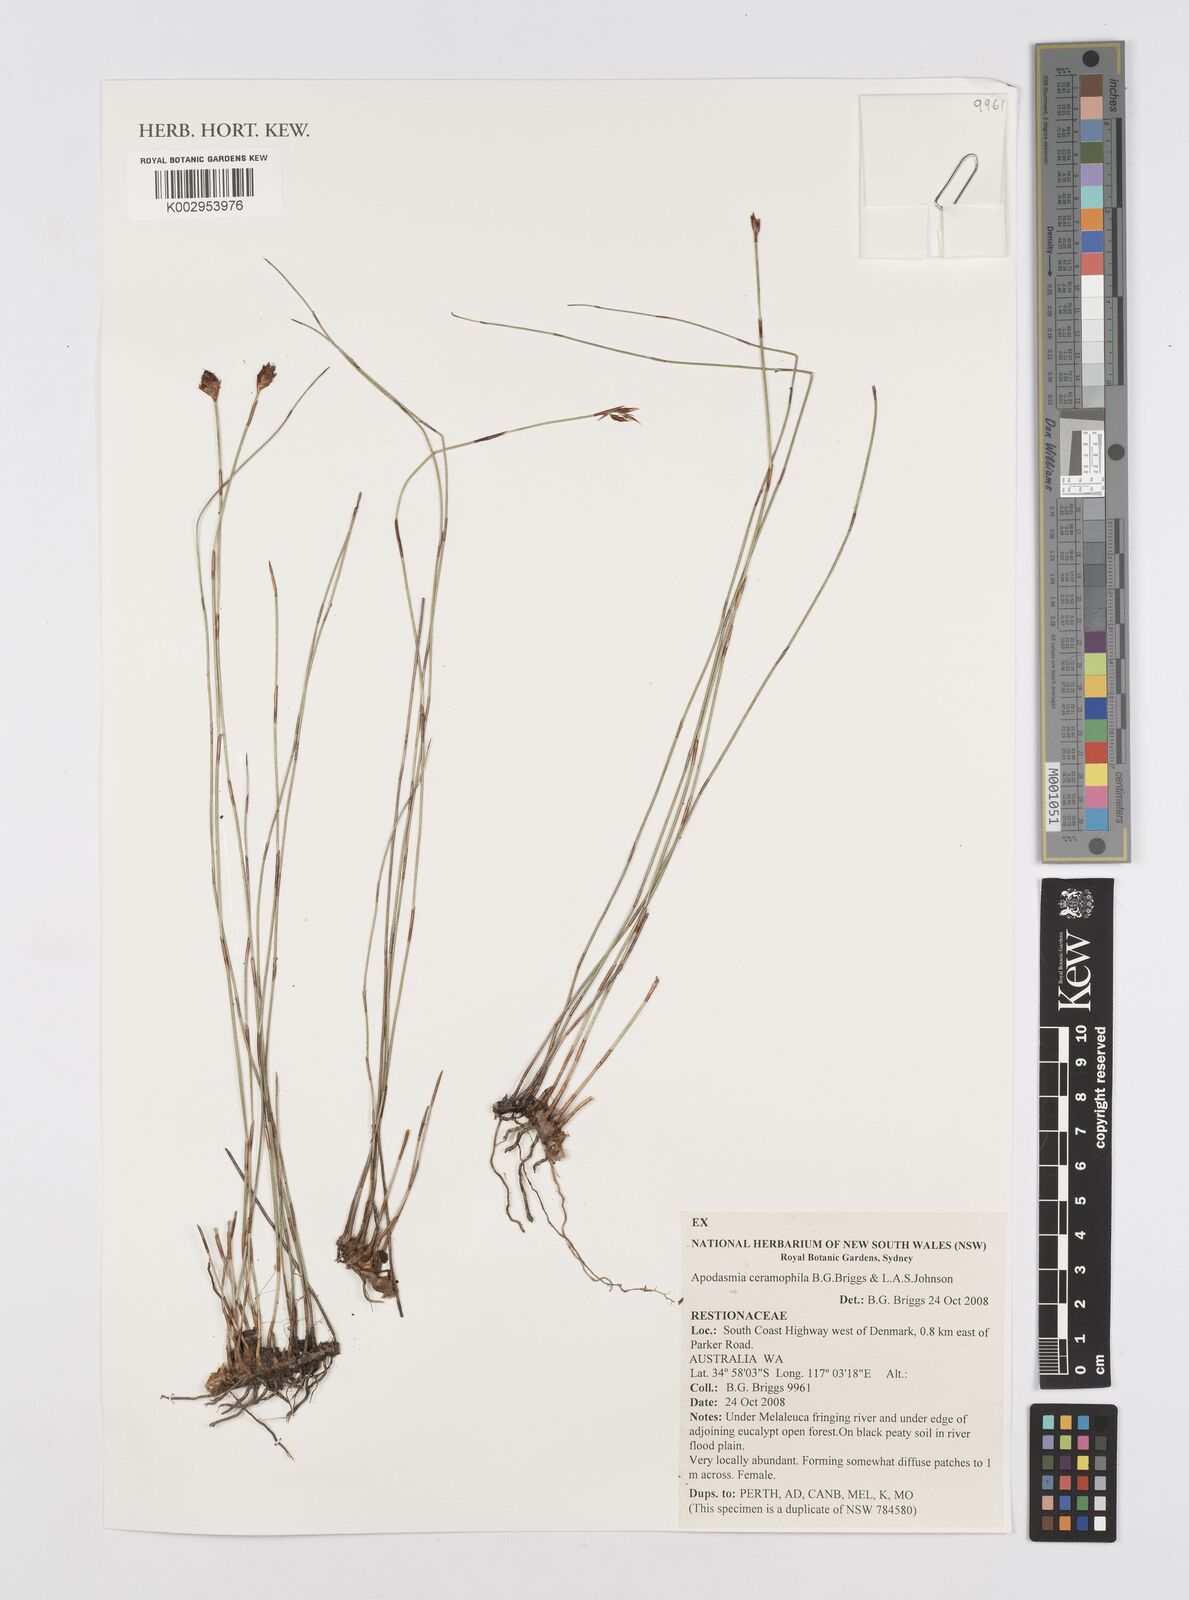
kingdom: Plantae
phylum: Tracheophyta
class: Liliopsida
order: Poales
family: Restionaceae
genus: Apodasmia
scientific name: Apodasmia ceramophila
